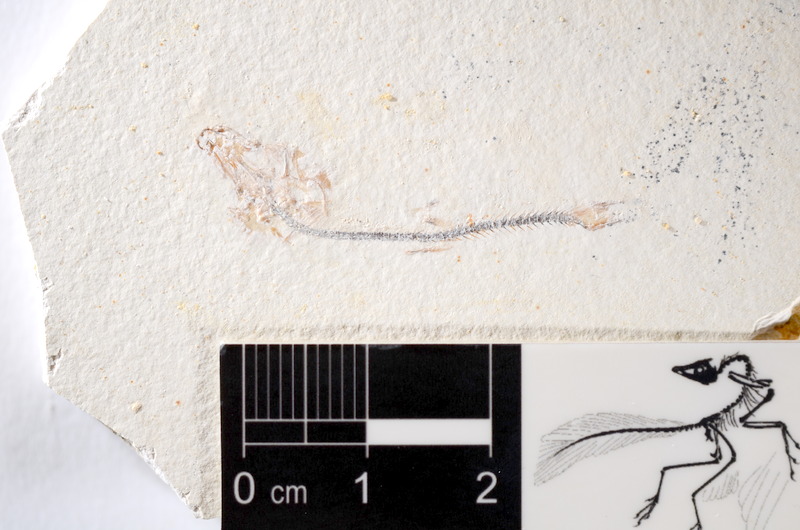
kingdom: Animalia
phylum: Chordata
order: Salmoniformes
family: Orthogonikleithridae
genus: Orthogonikleithrus
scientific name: Orthogonikleithrus hoelli
